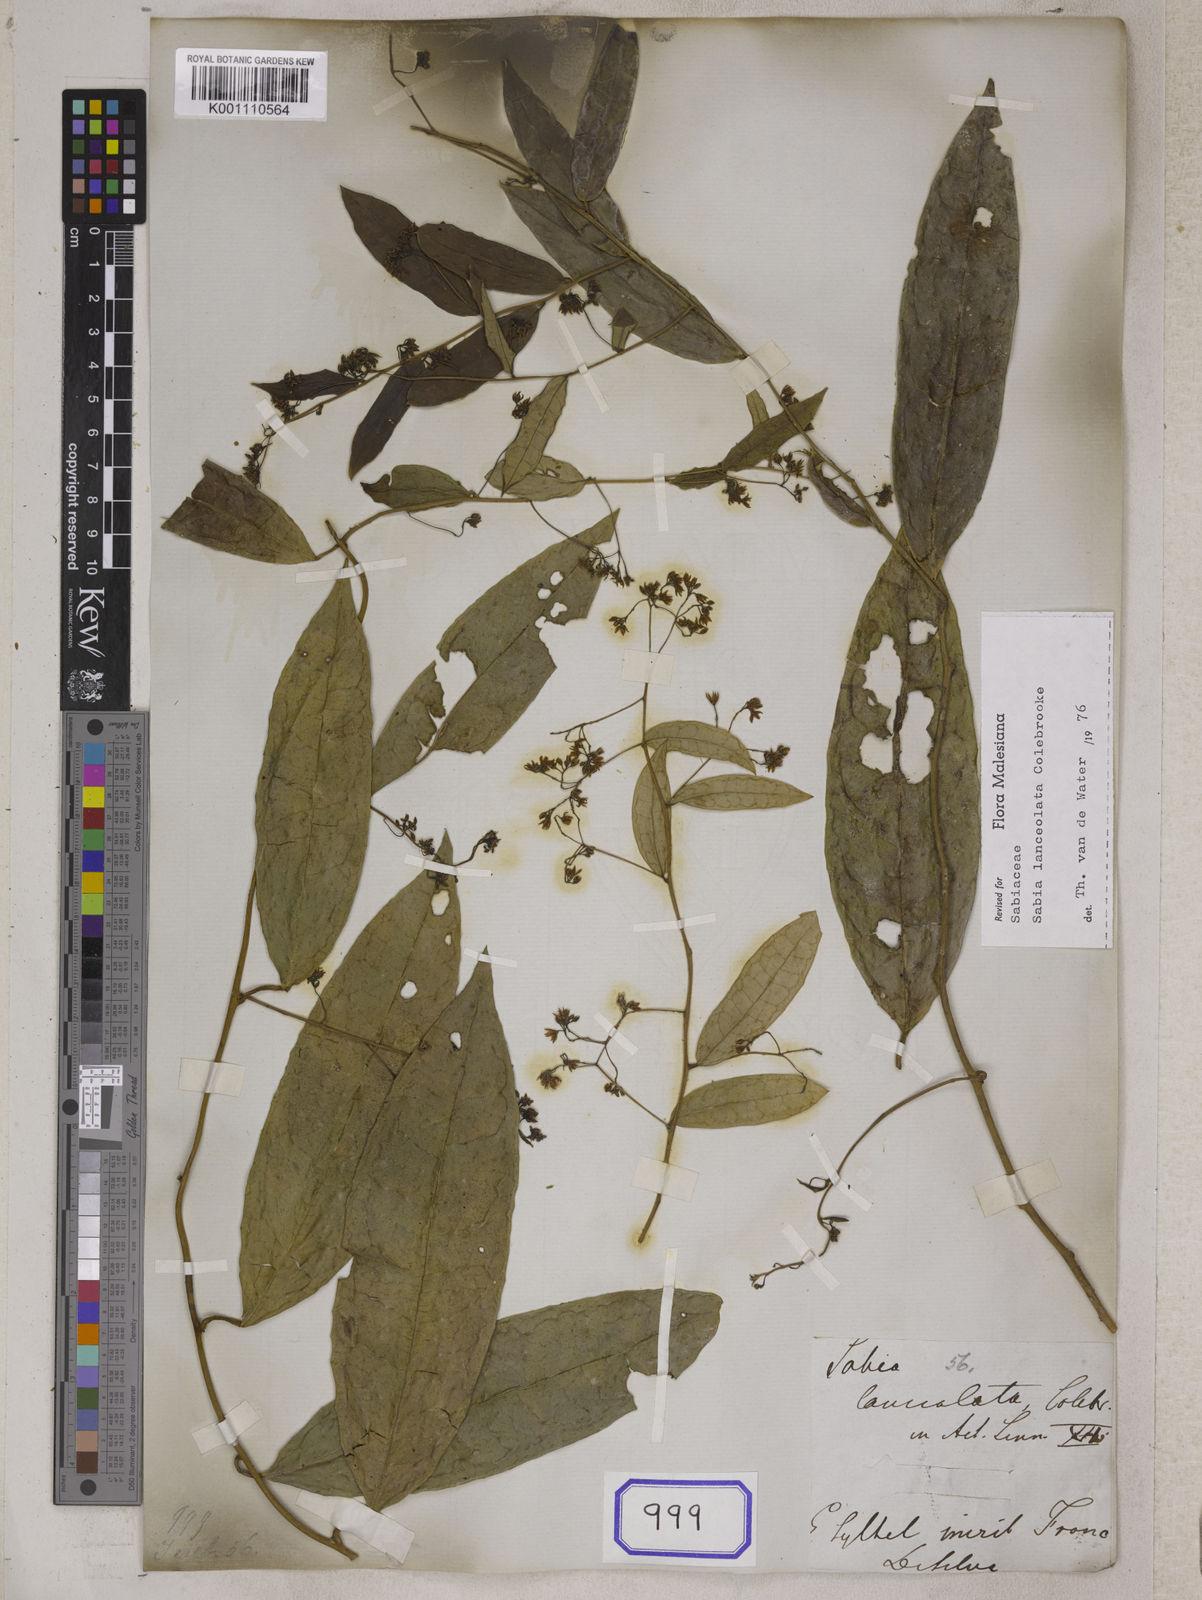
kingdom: Plantae
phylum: Tracheophyta
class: Magnoliopsida
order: Proteales
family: Sabiaceae
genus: Sabia
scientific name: Sabia lanceolata
